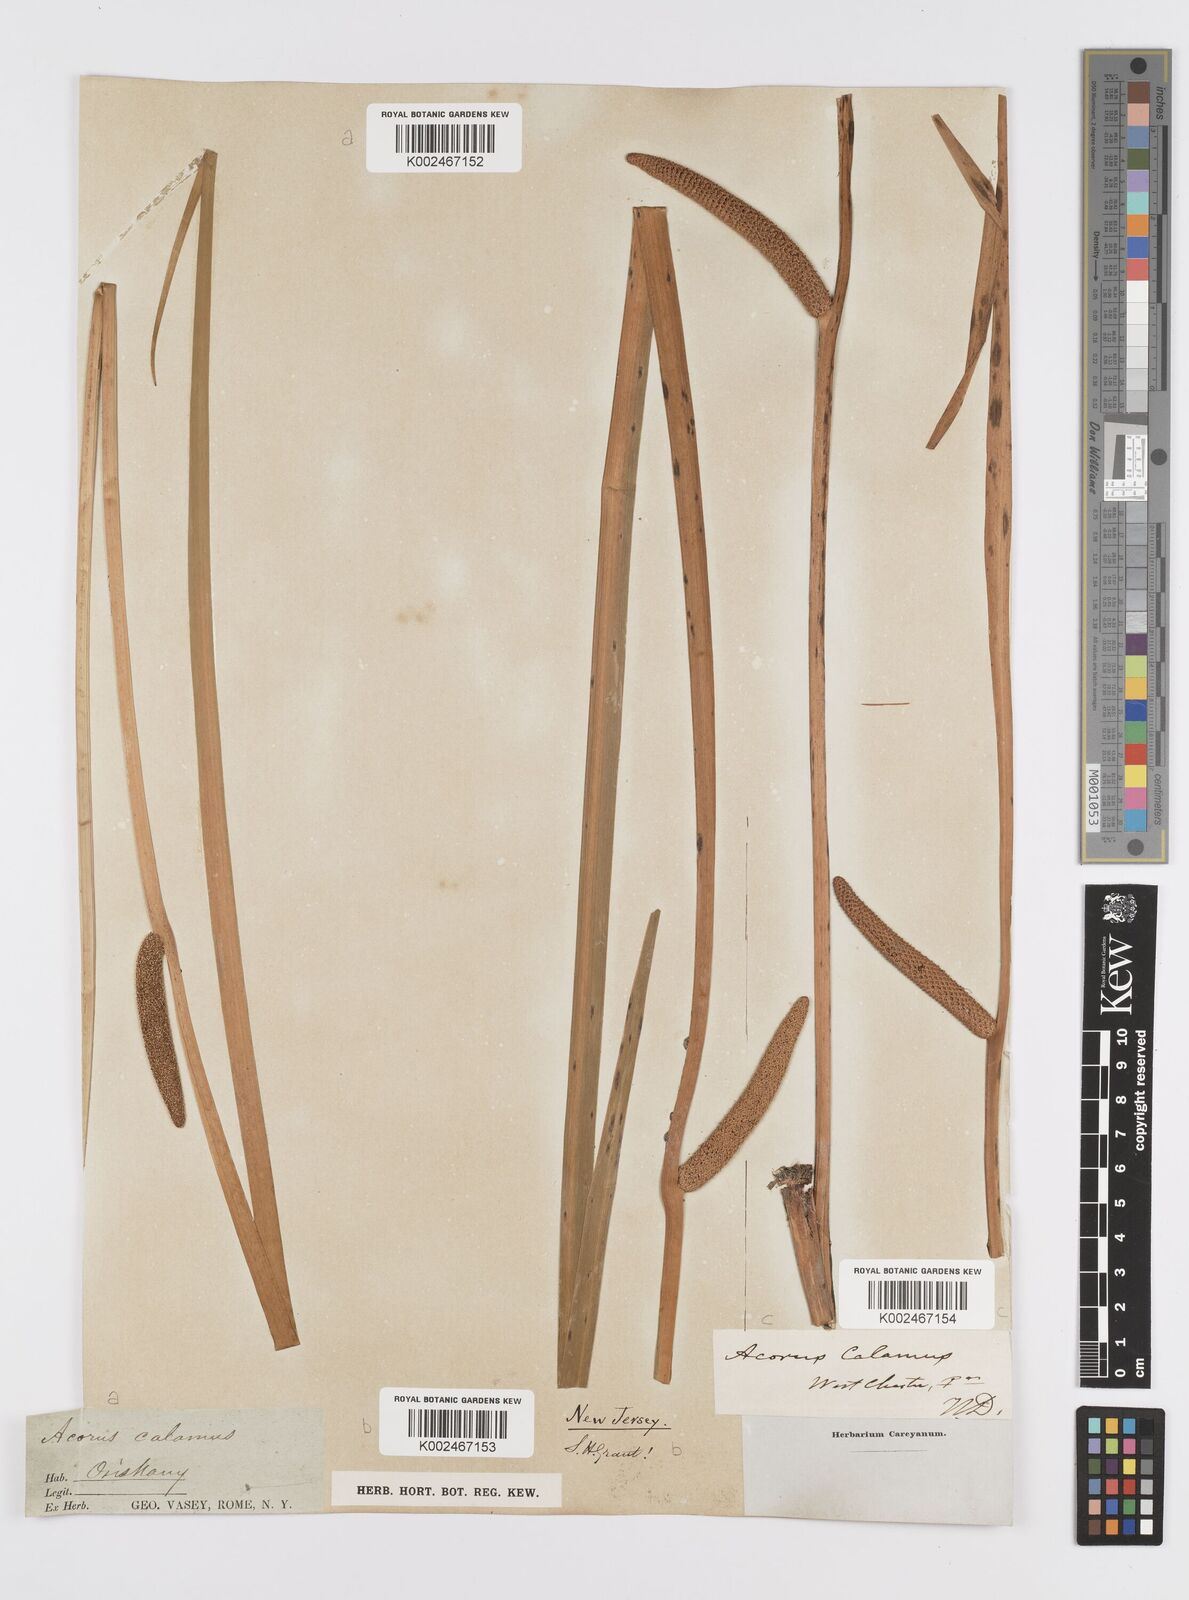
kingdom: Plantae
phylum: Tracheophyta
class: Liliopsida
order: Acorales
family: Acoraceae
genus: Acorus
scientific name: Acorus calamus
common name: Sweet-flag
